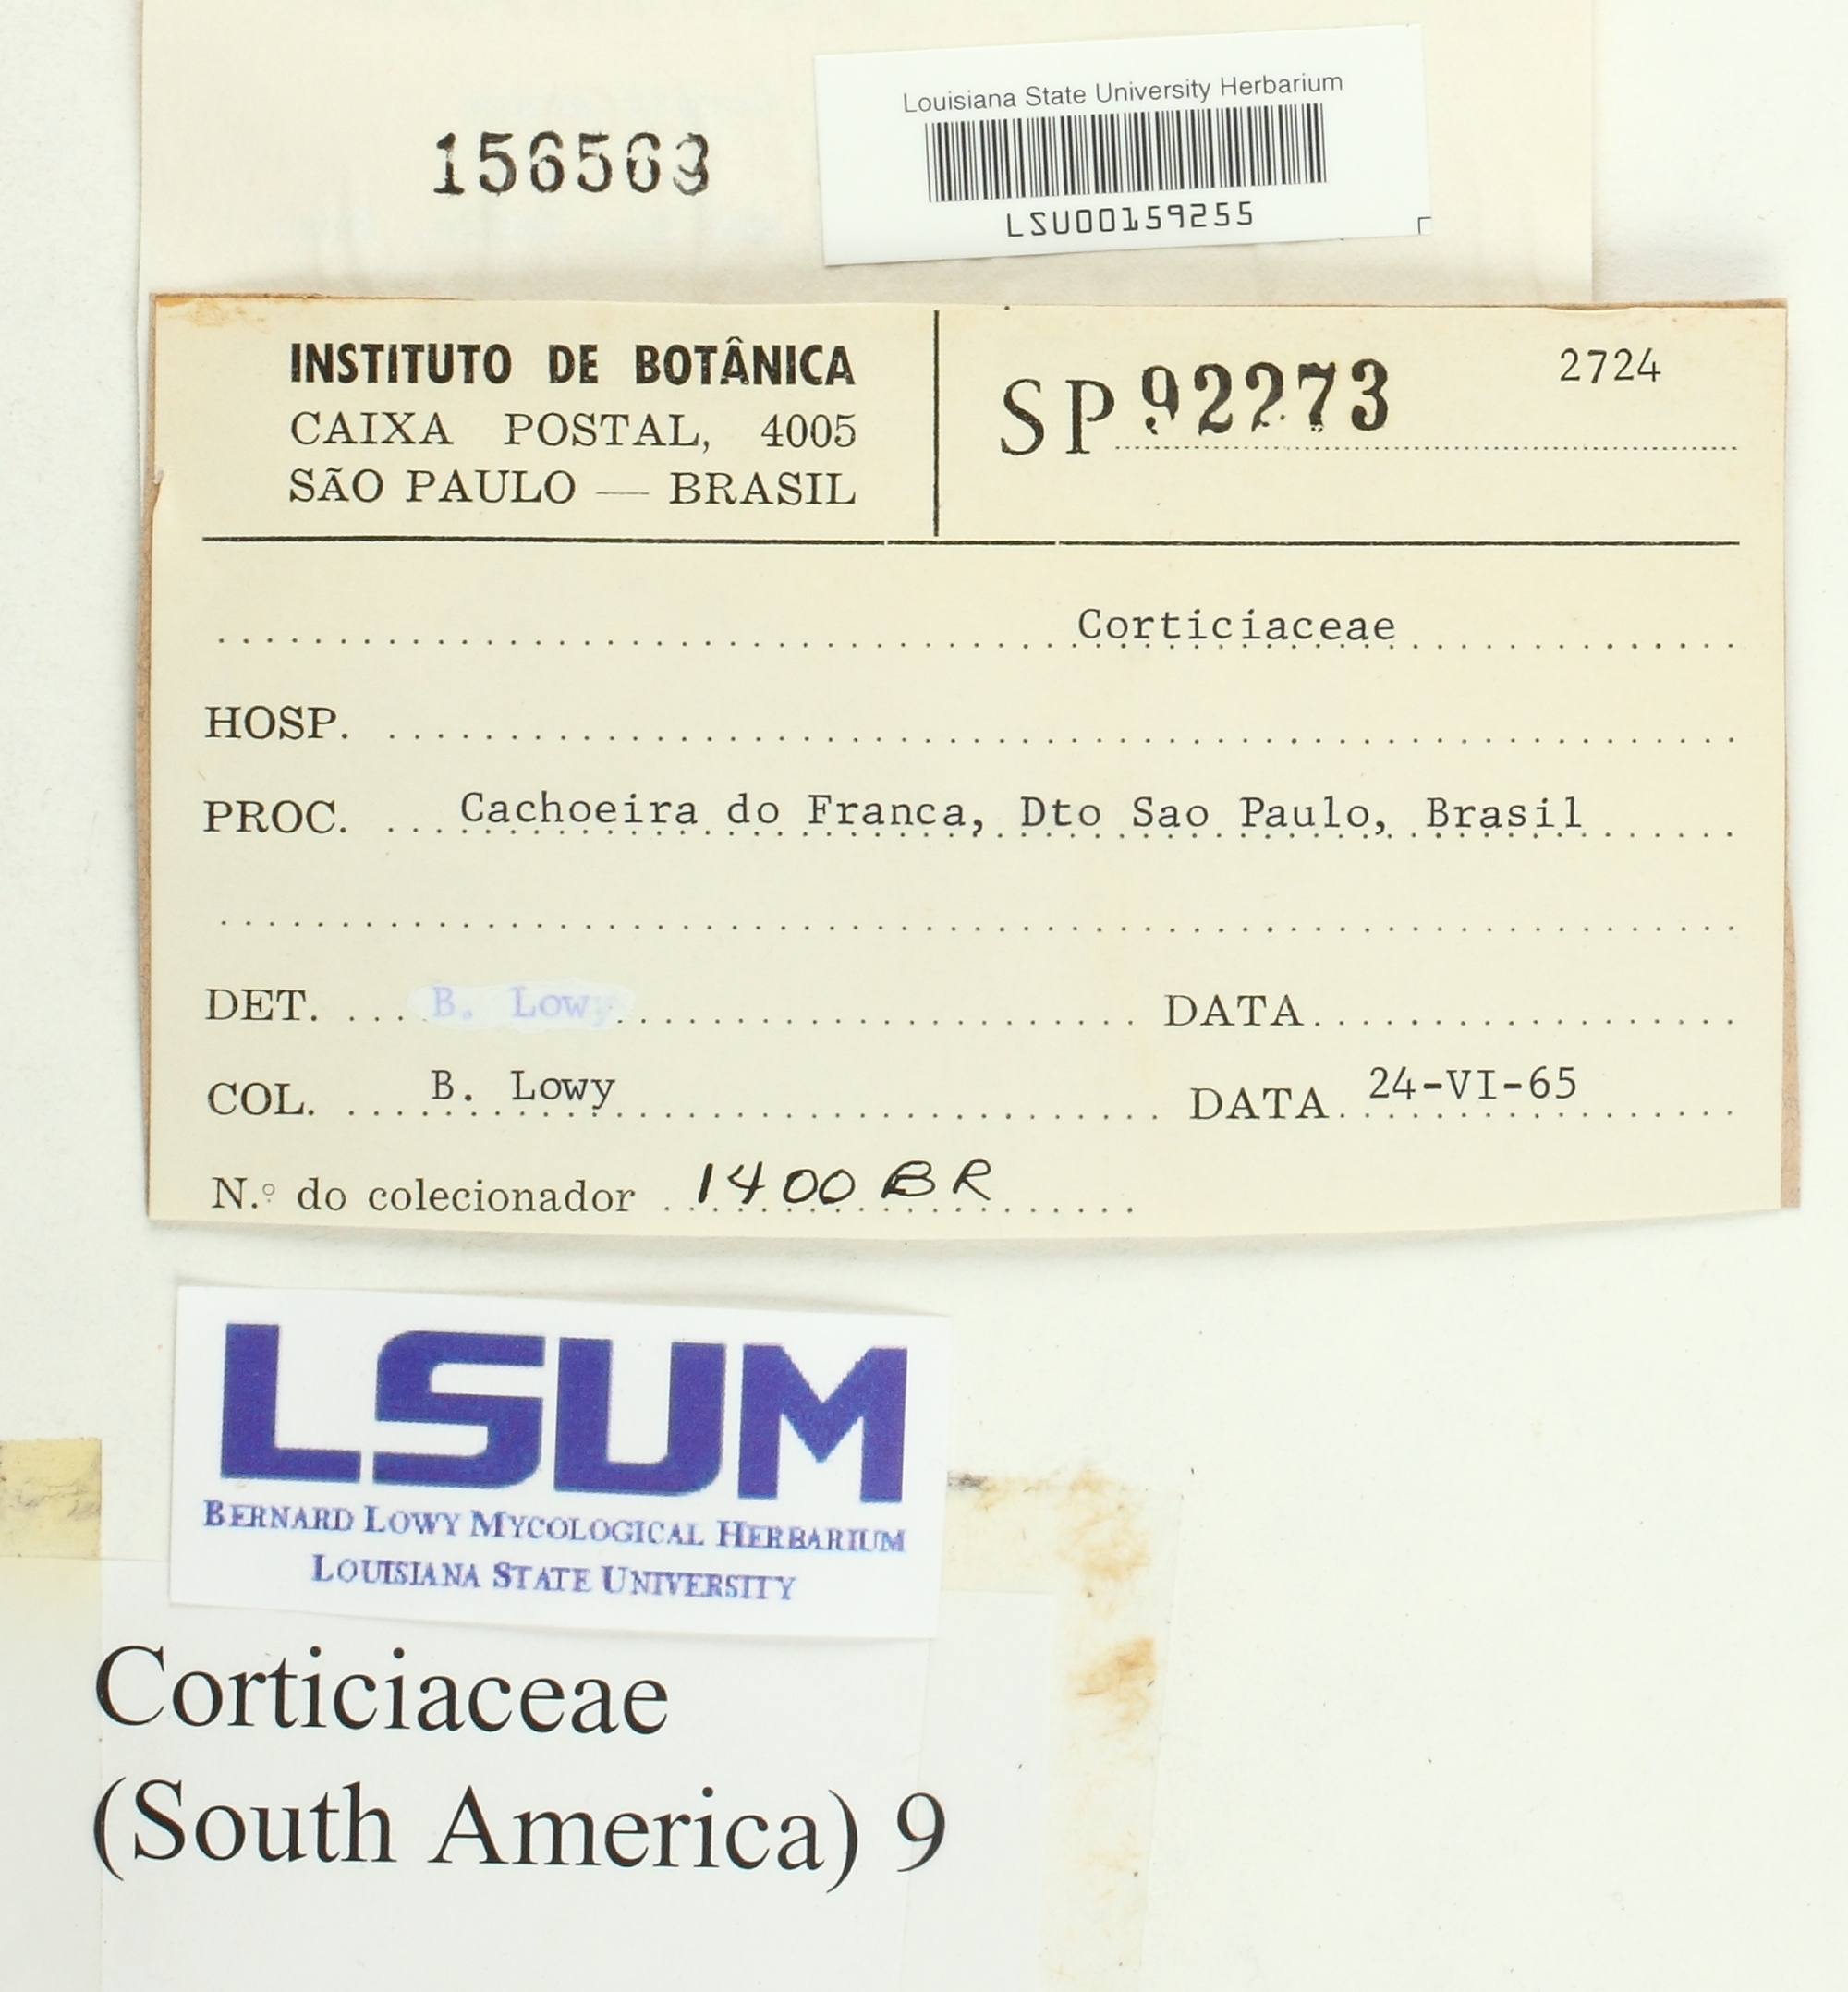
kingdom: Fungi
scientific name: Fungi
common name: Fungi
